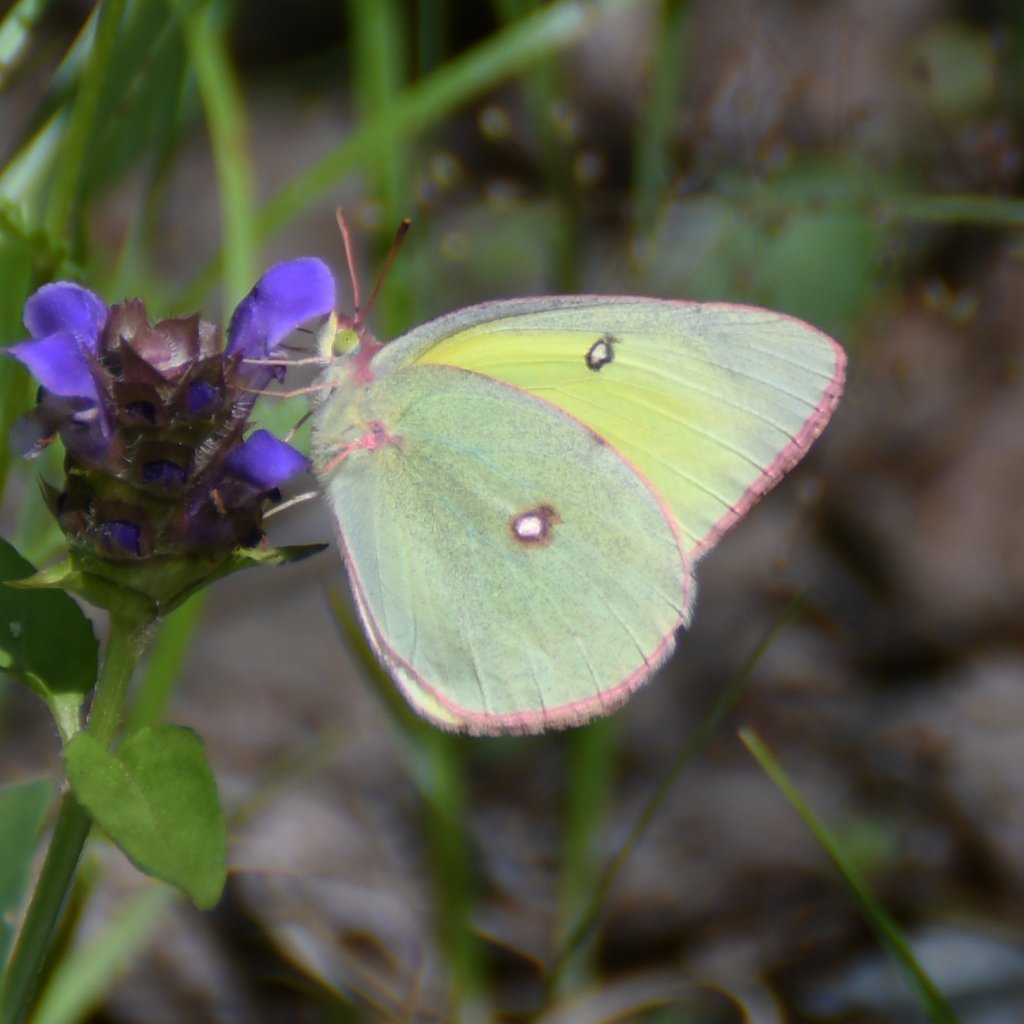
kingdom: Animalia
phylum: Arthropoda
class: Insecta
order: Lepidoptera
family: Pieridae
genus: Colias
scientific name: Colias
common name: Clouded Yellows
